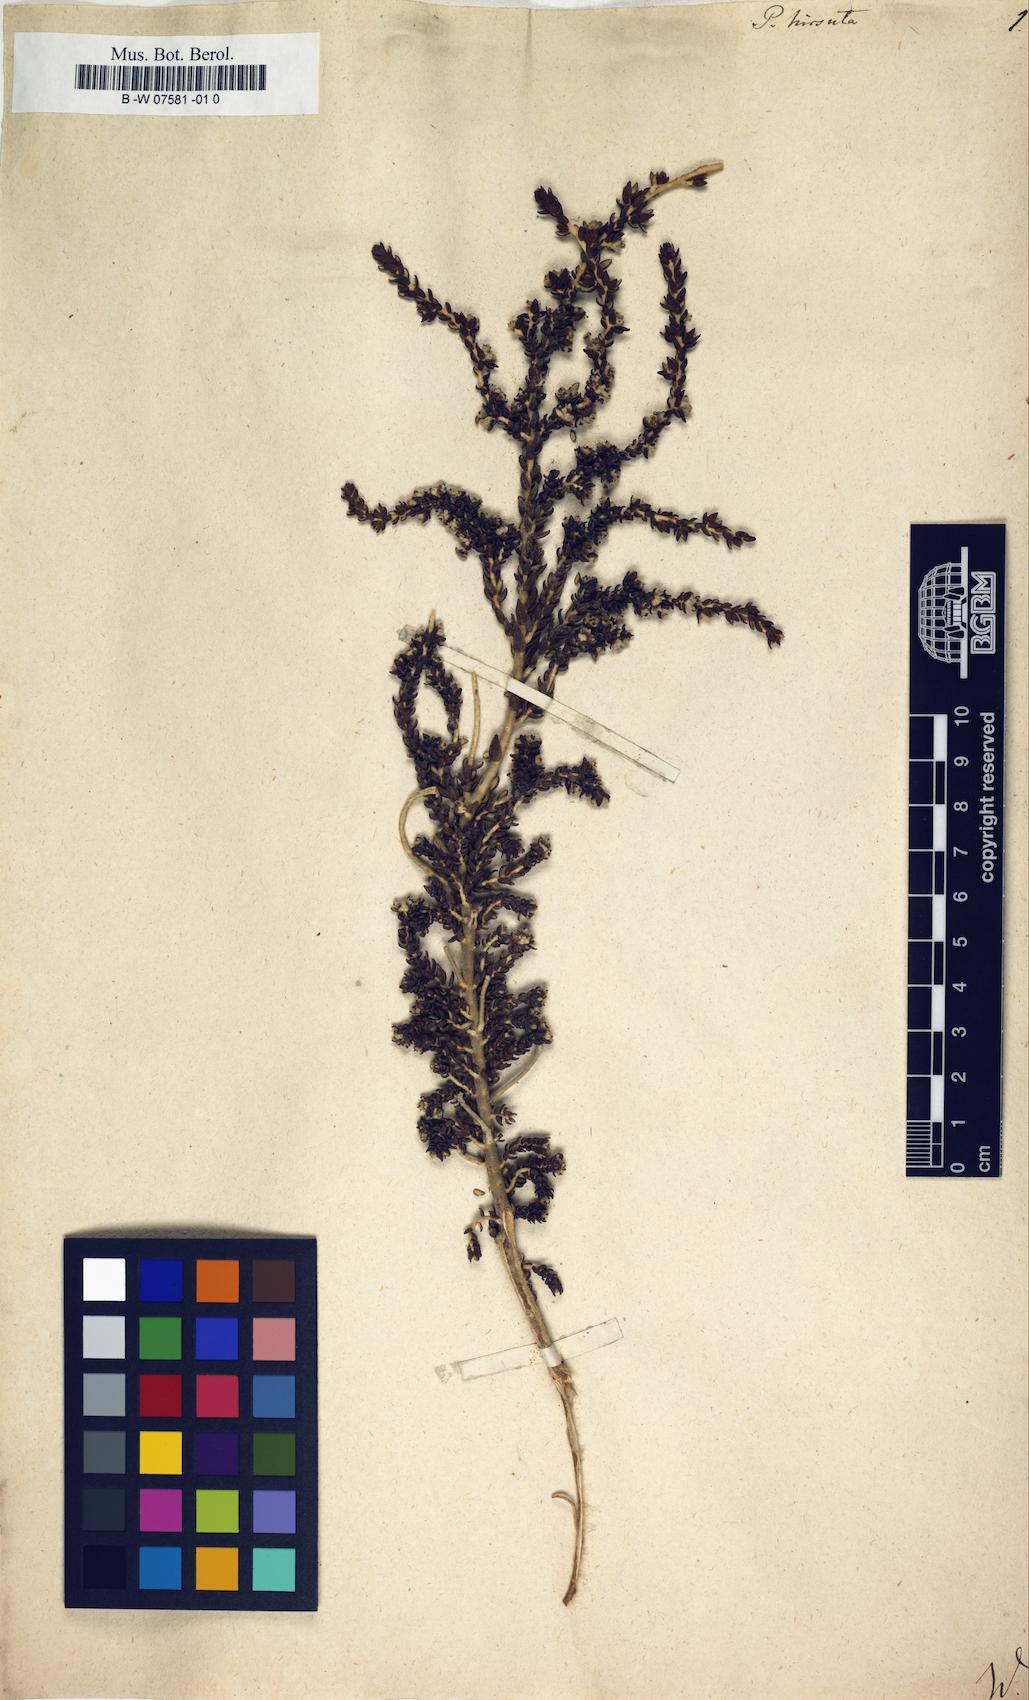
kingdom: Plantae
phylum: Tracheophyta
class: Magnoliopsida
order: Malvales
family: Thymelaeaceae
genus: Thymelaea
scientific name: Thymelaea
